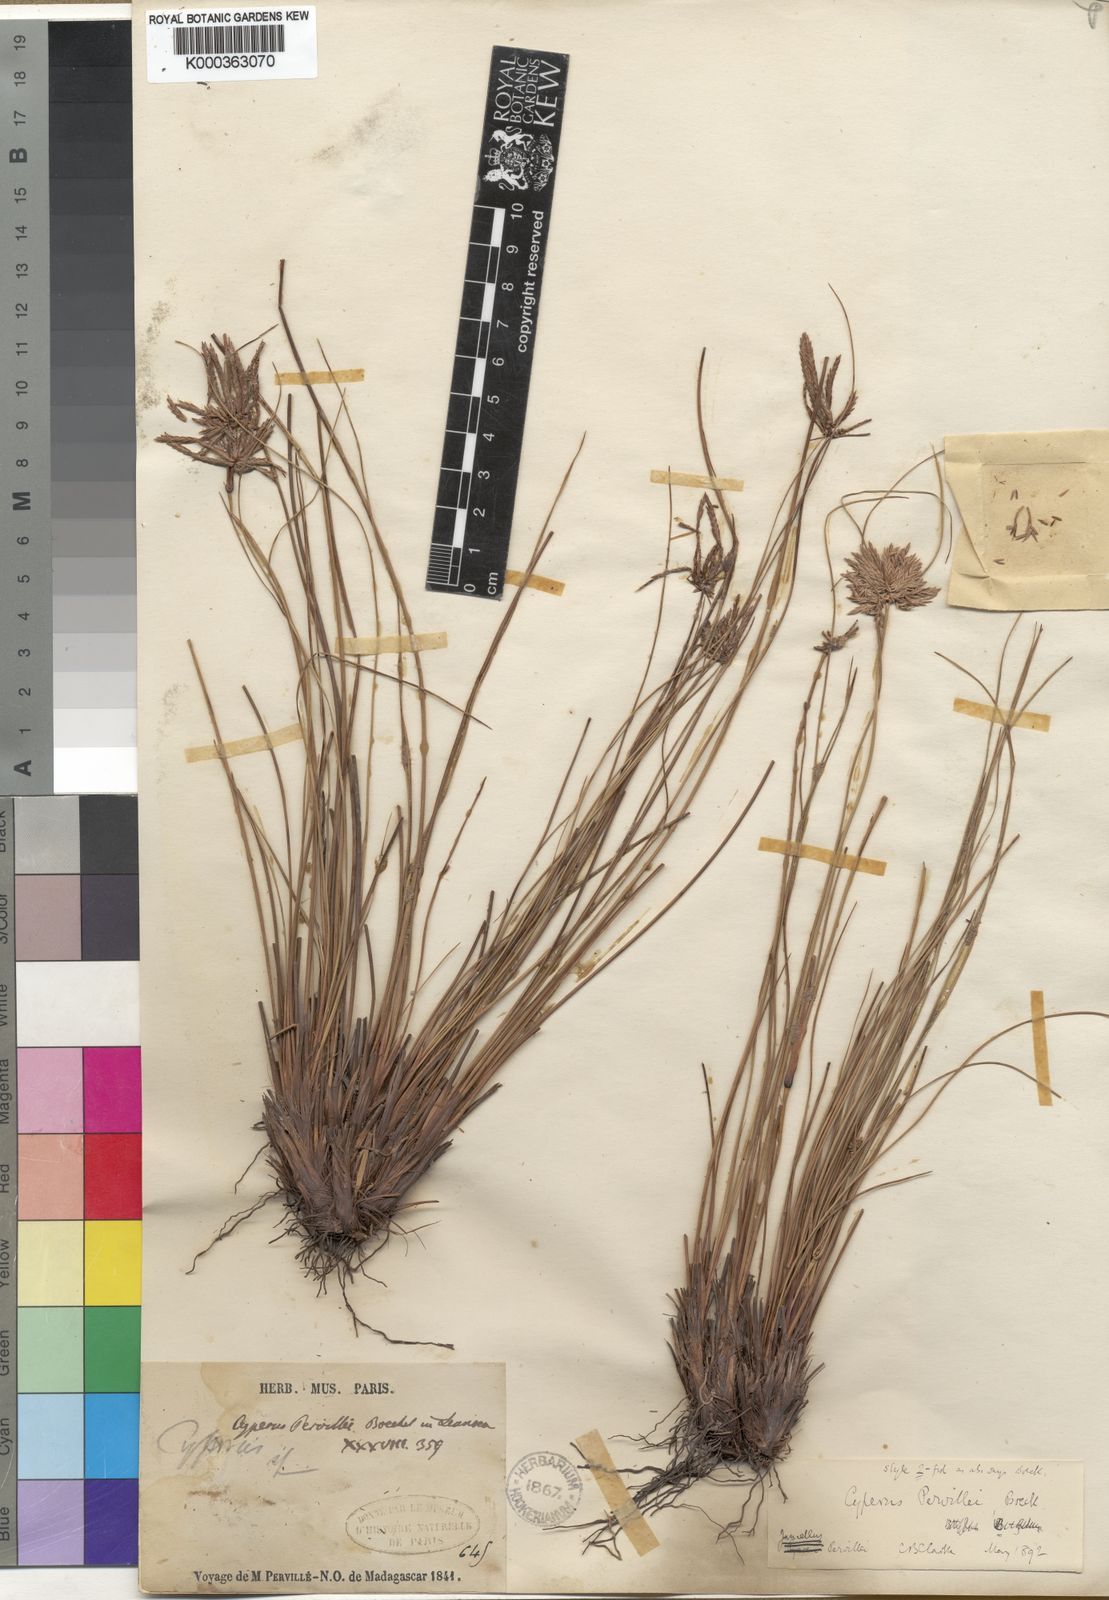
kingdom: Plantae
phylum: Tracheophyta
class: Liliopsida
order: Poales
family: Cyperaceae
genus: Cyperus
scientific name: Cyperus pervillei
